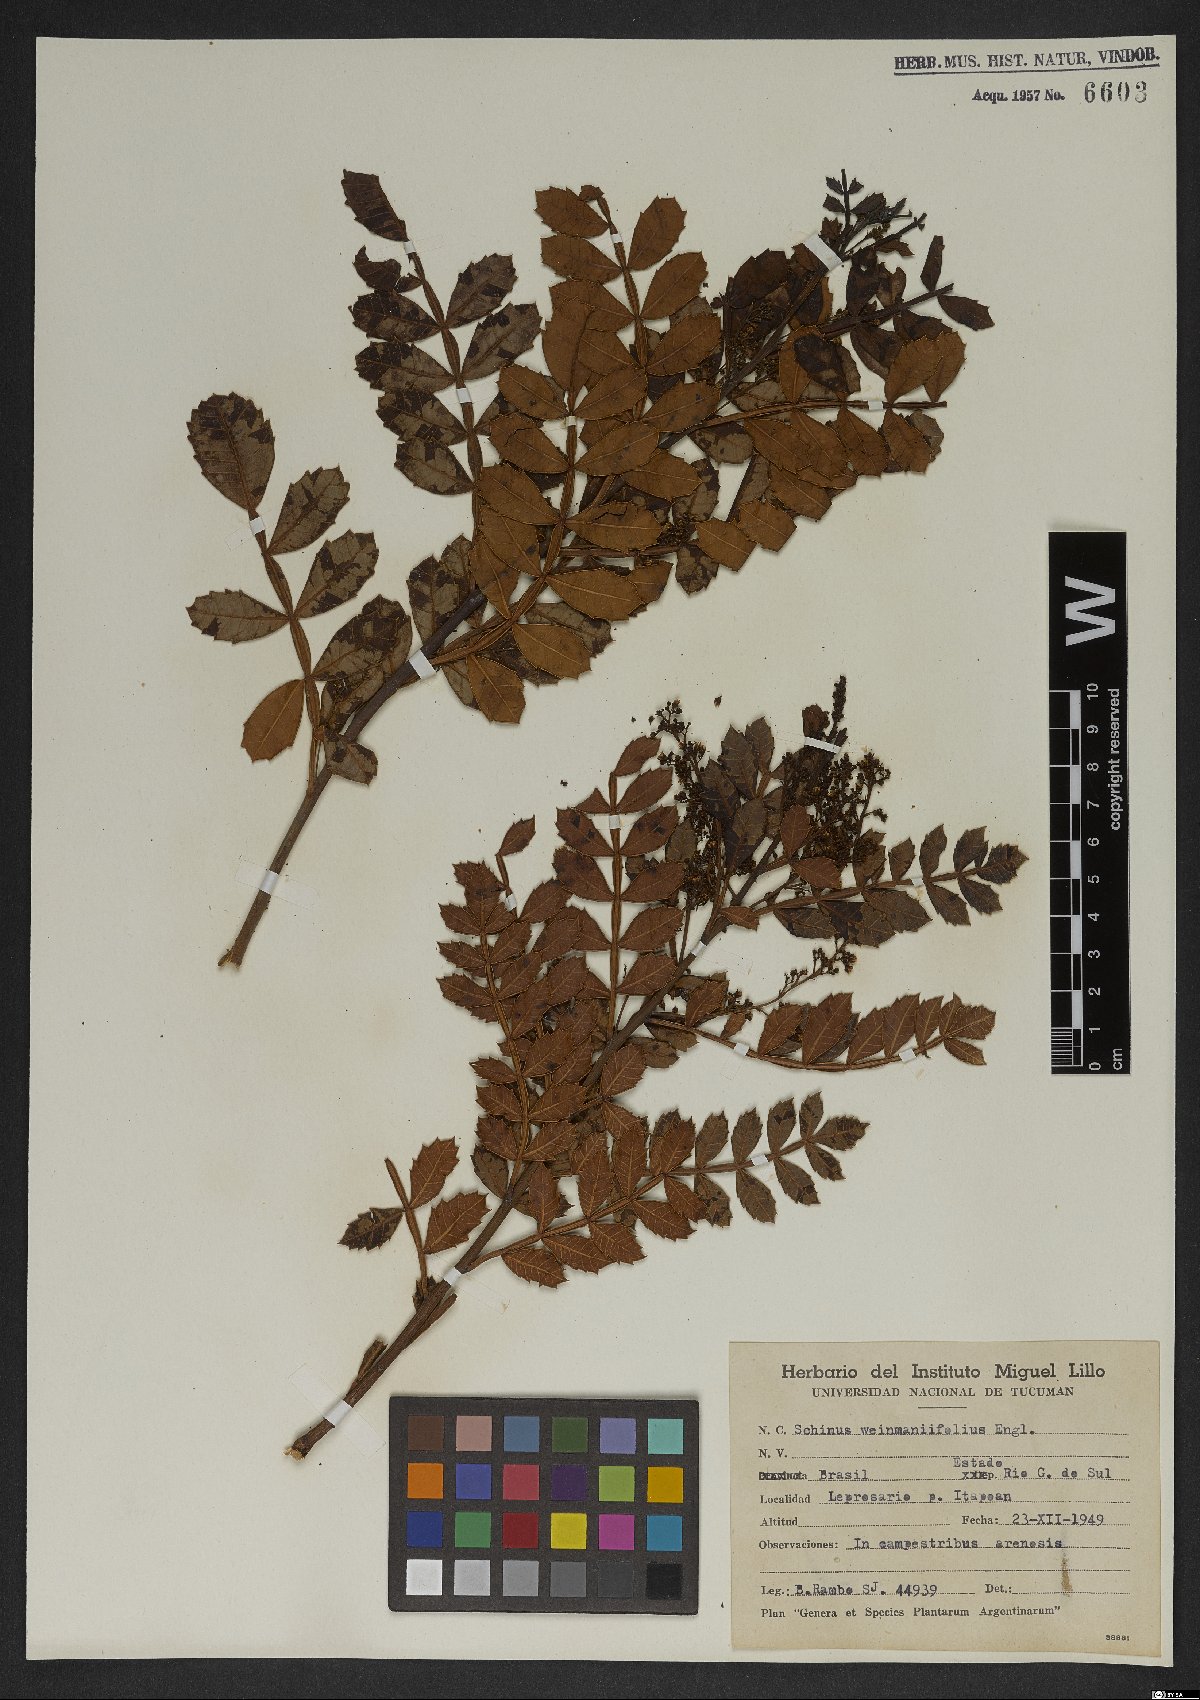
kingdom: Plantae
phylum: Tracheophyta
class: Magnoliopsida
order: Sapindales
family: Anacardiaceae
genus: Schinus
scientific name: Schinus weinmanniifolia
